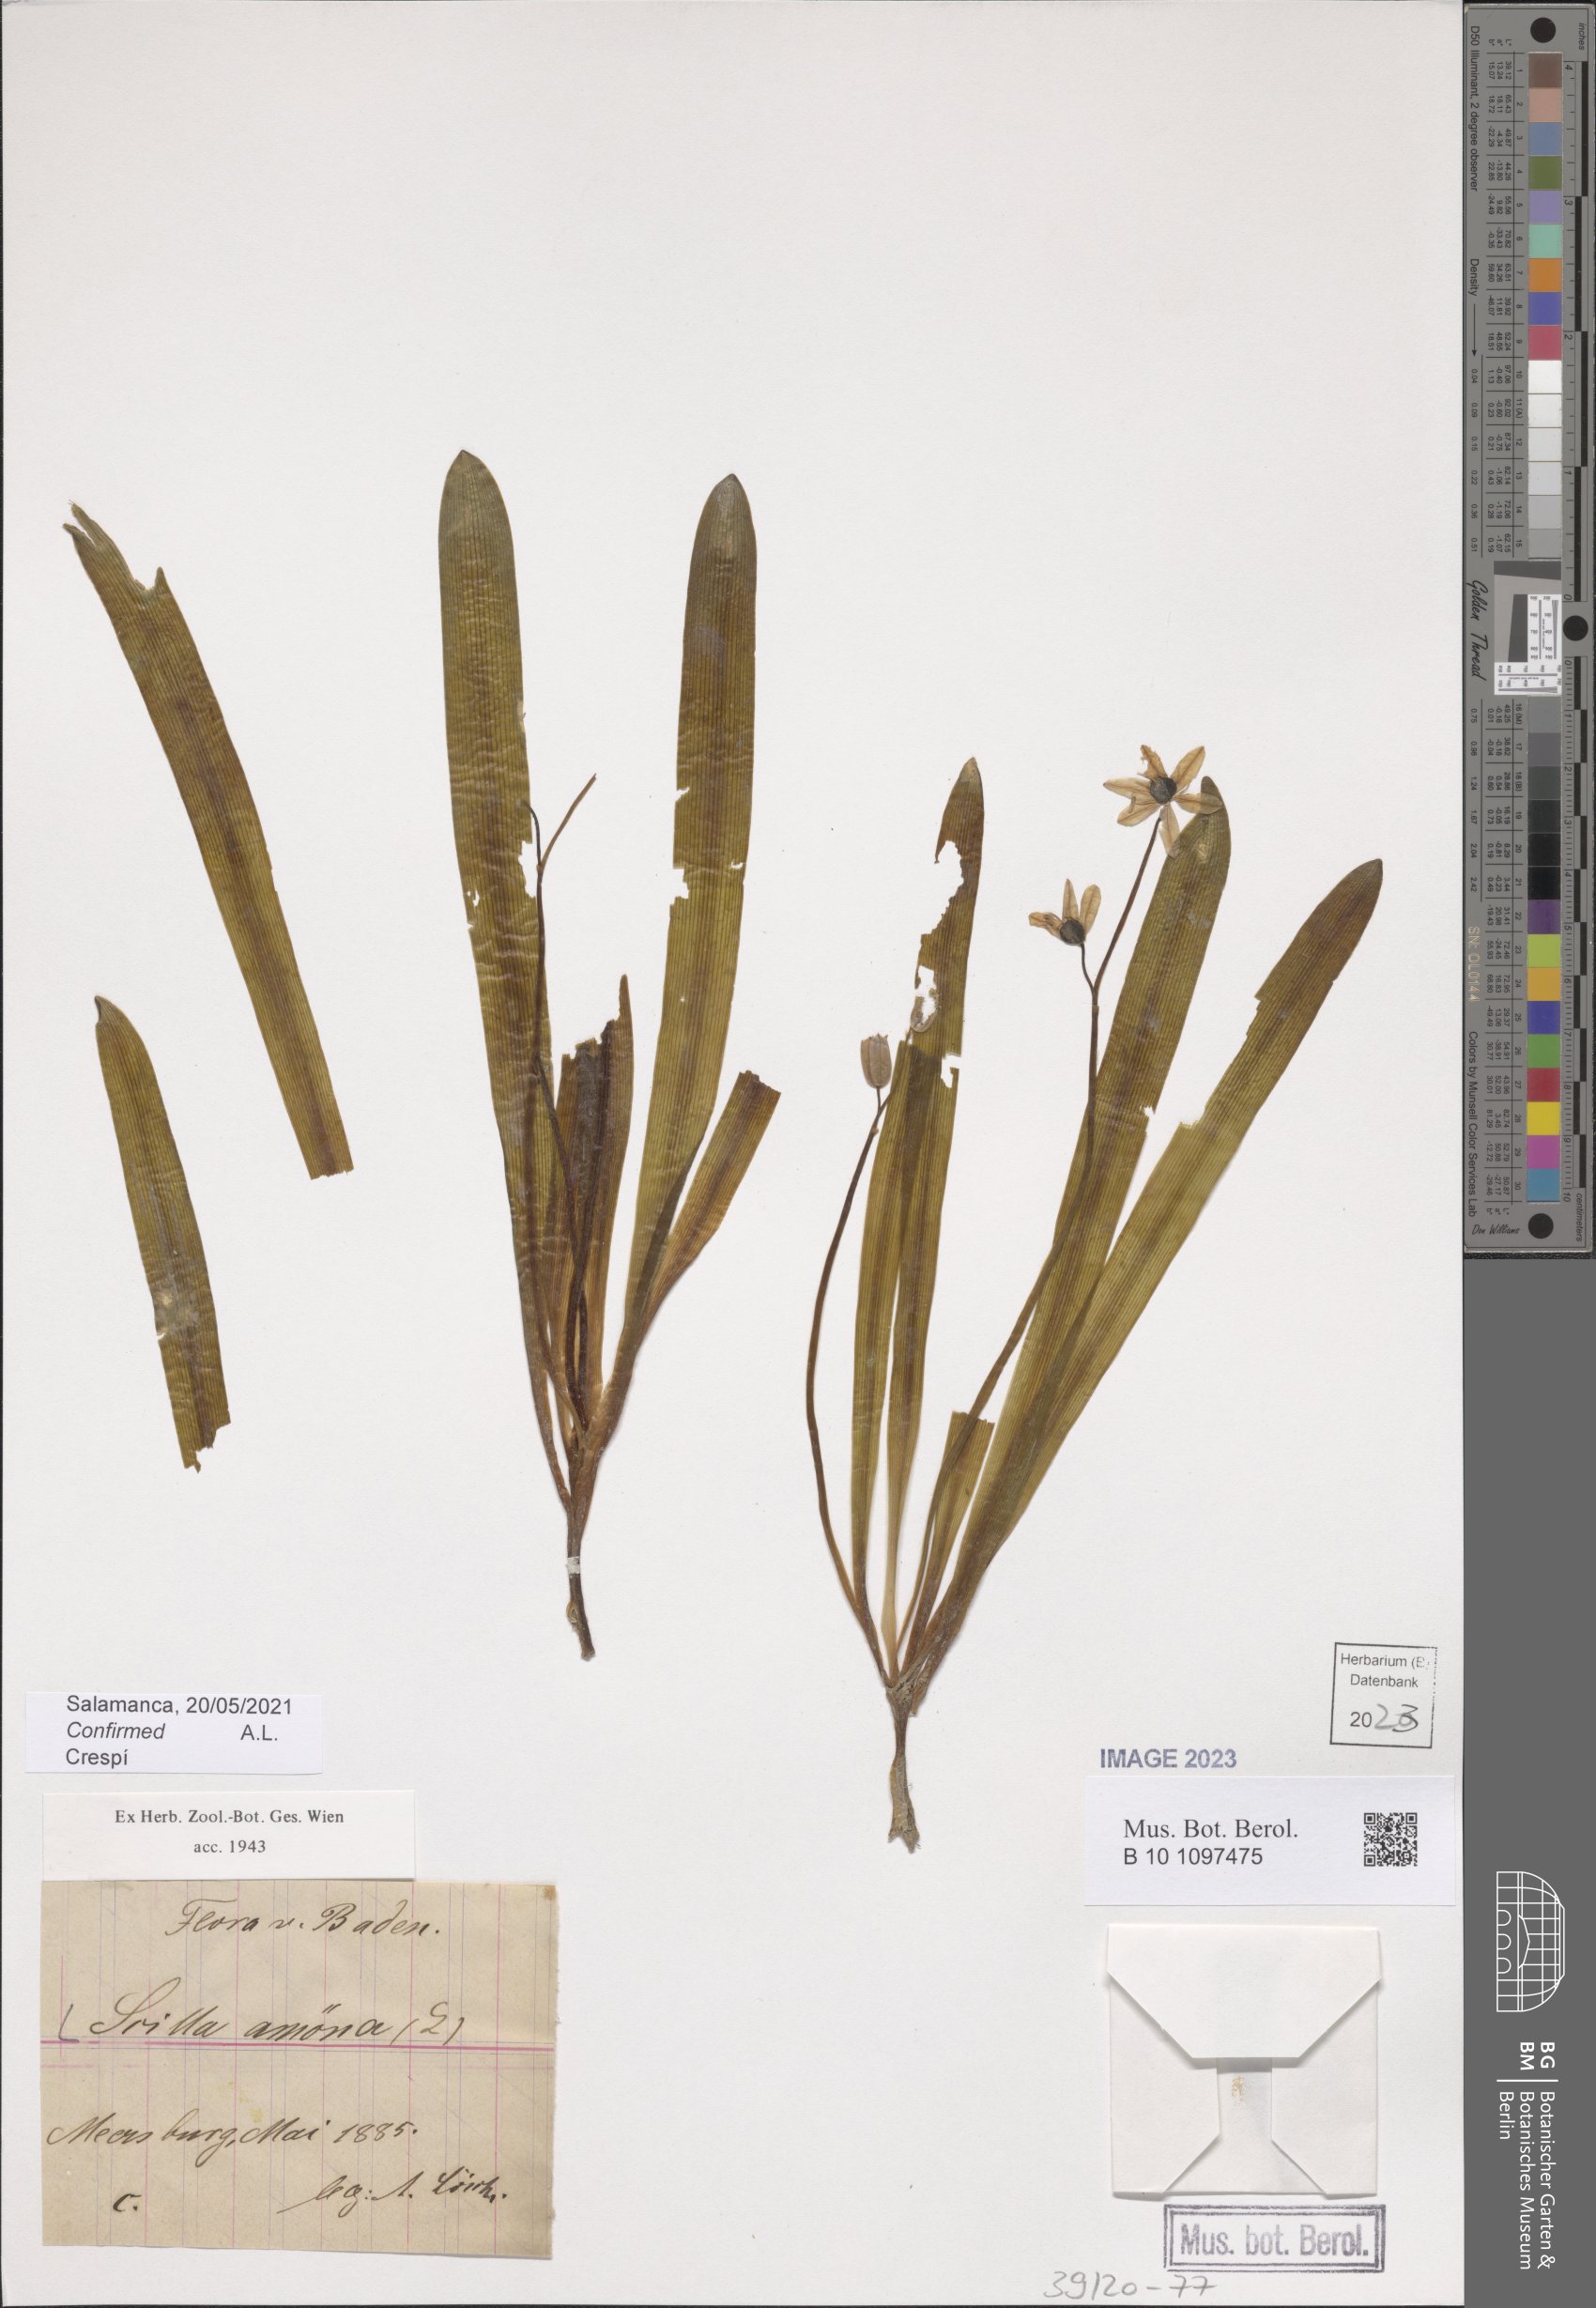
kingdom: Plantae
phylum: Tracheophyta
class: Liliopsida
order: Asparagales
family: Asparagaceae
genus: Scilla
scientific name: Scilla amoena
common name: Star-hyacinth
